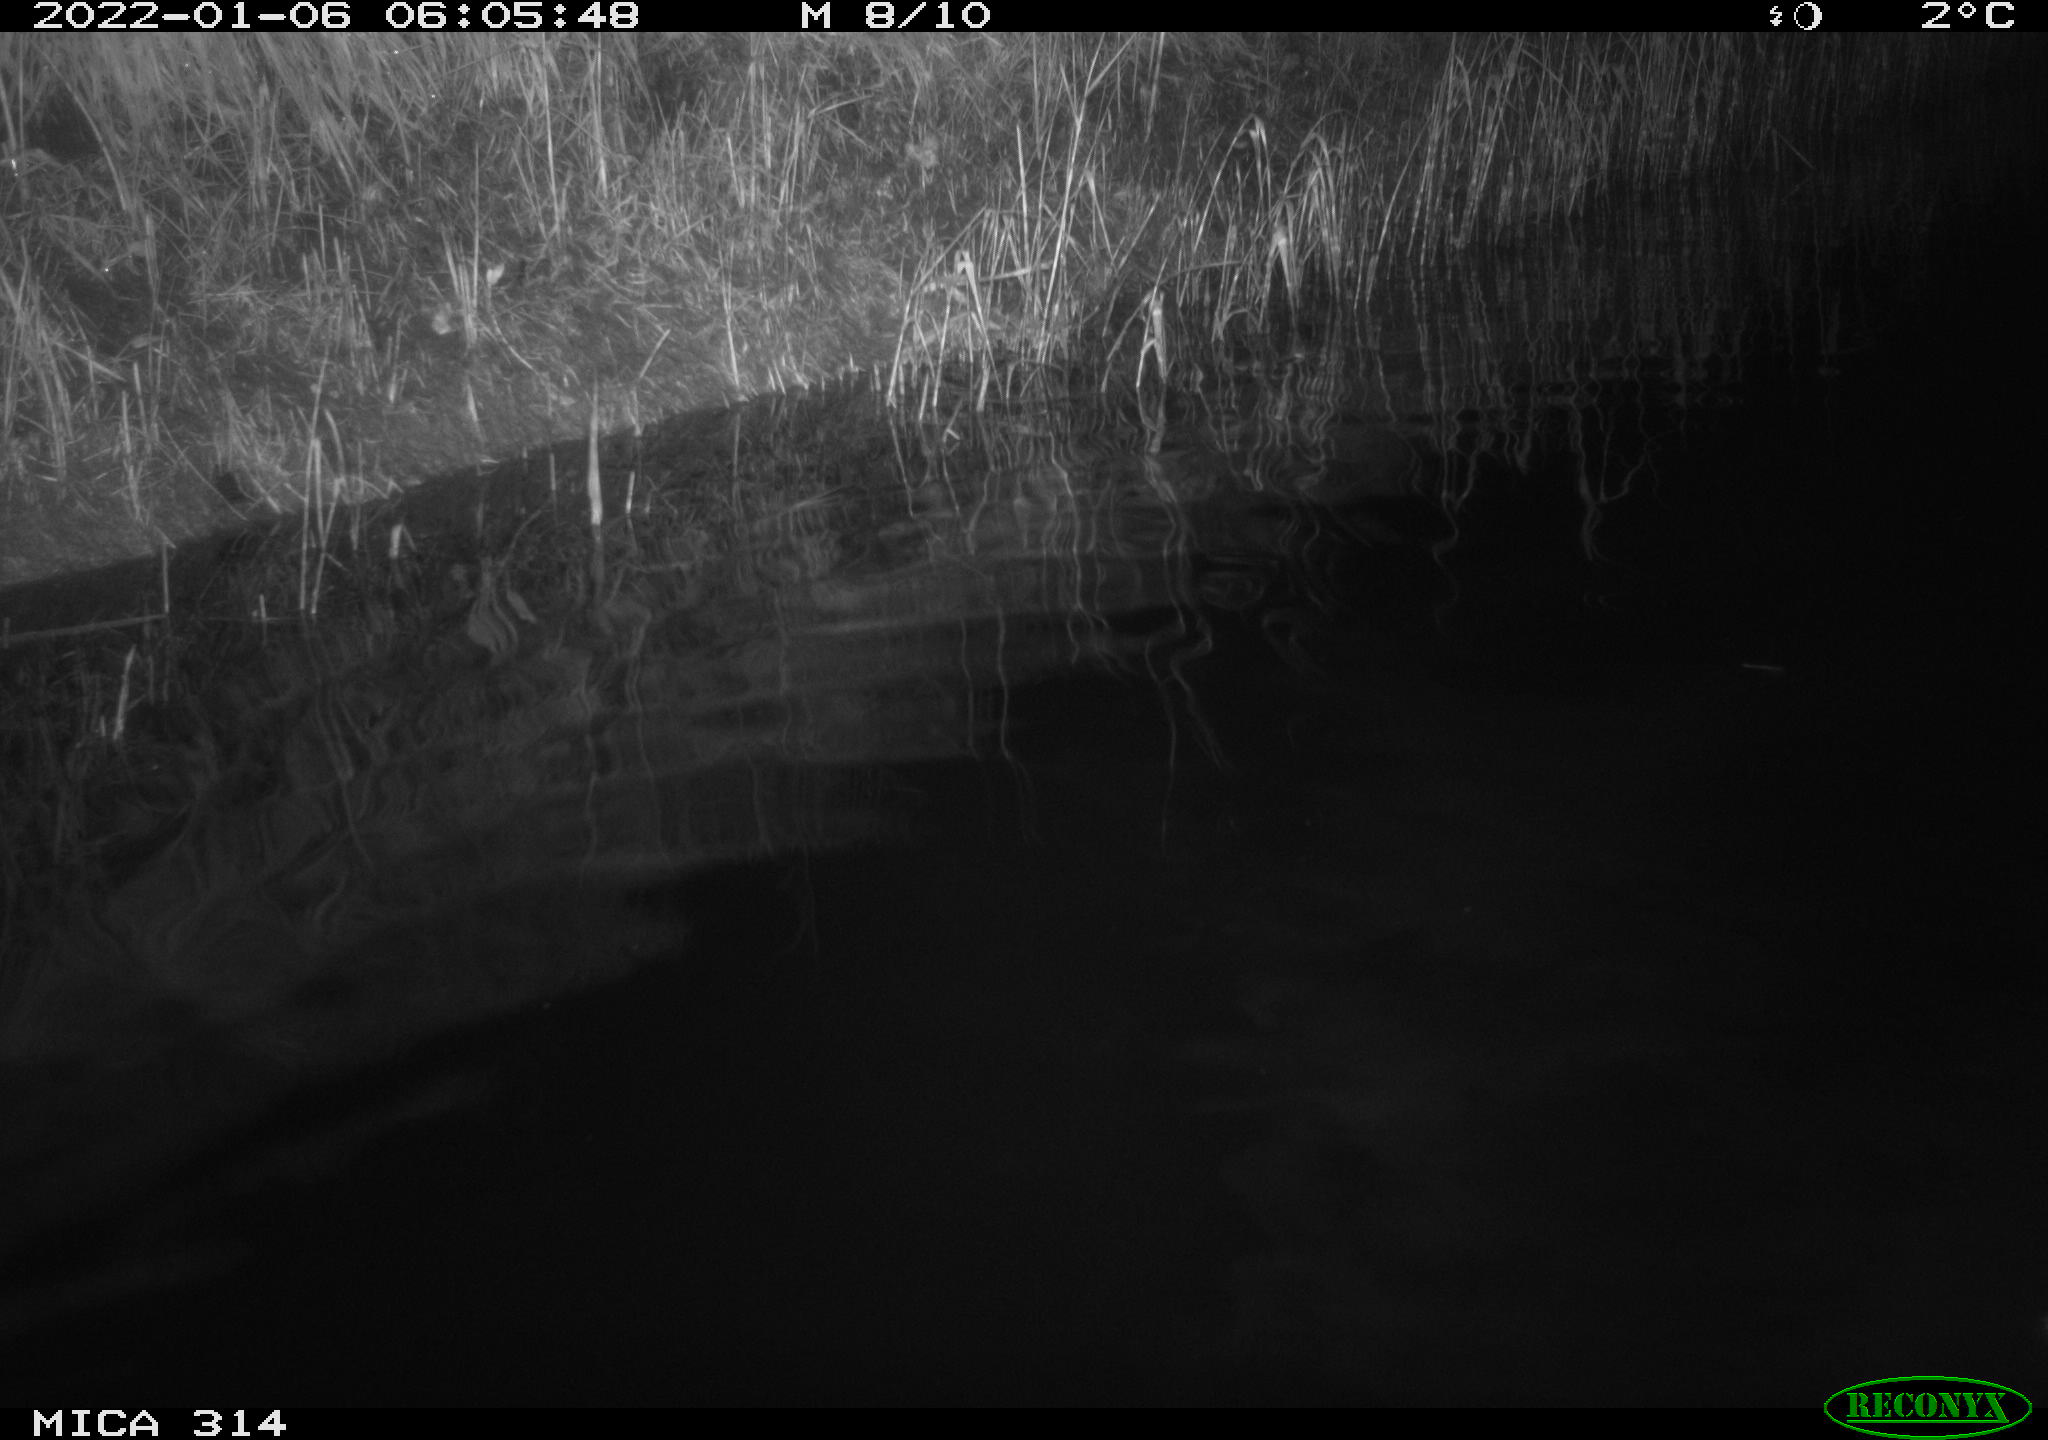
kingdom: Animalia
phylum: Chordata
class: Mammalia
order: Rodentia
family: Cricetidae
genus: Ondatra
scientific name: Ondatra zibethicus
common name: Muskrat
